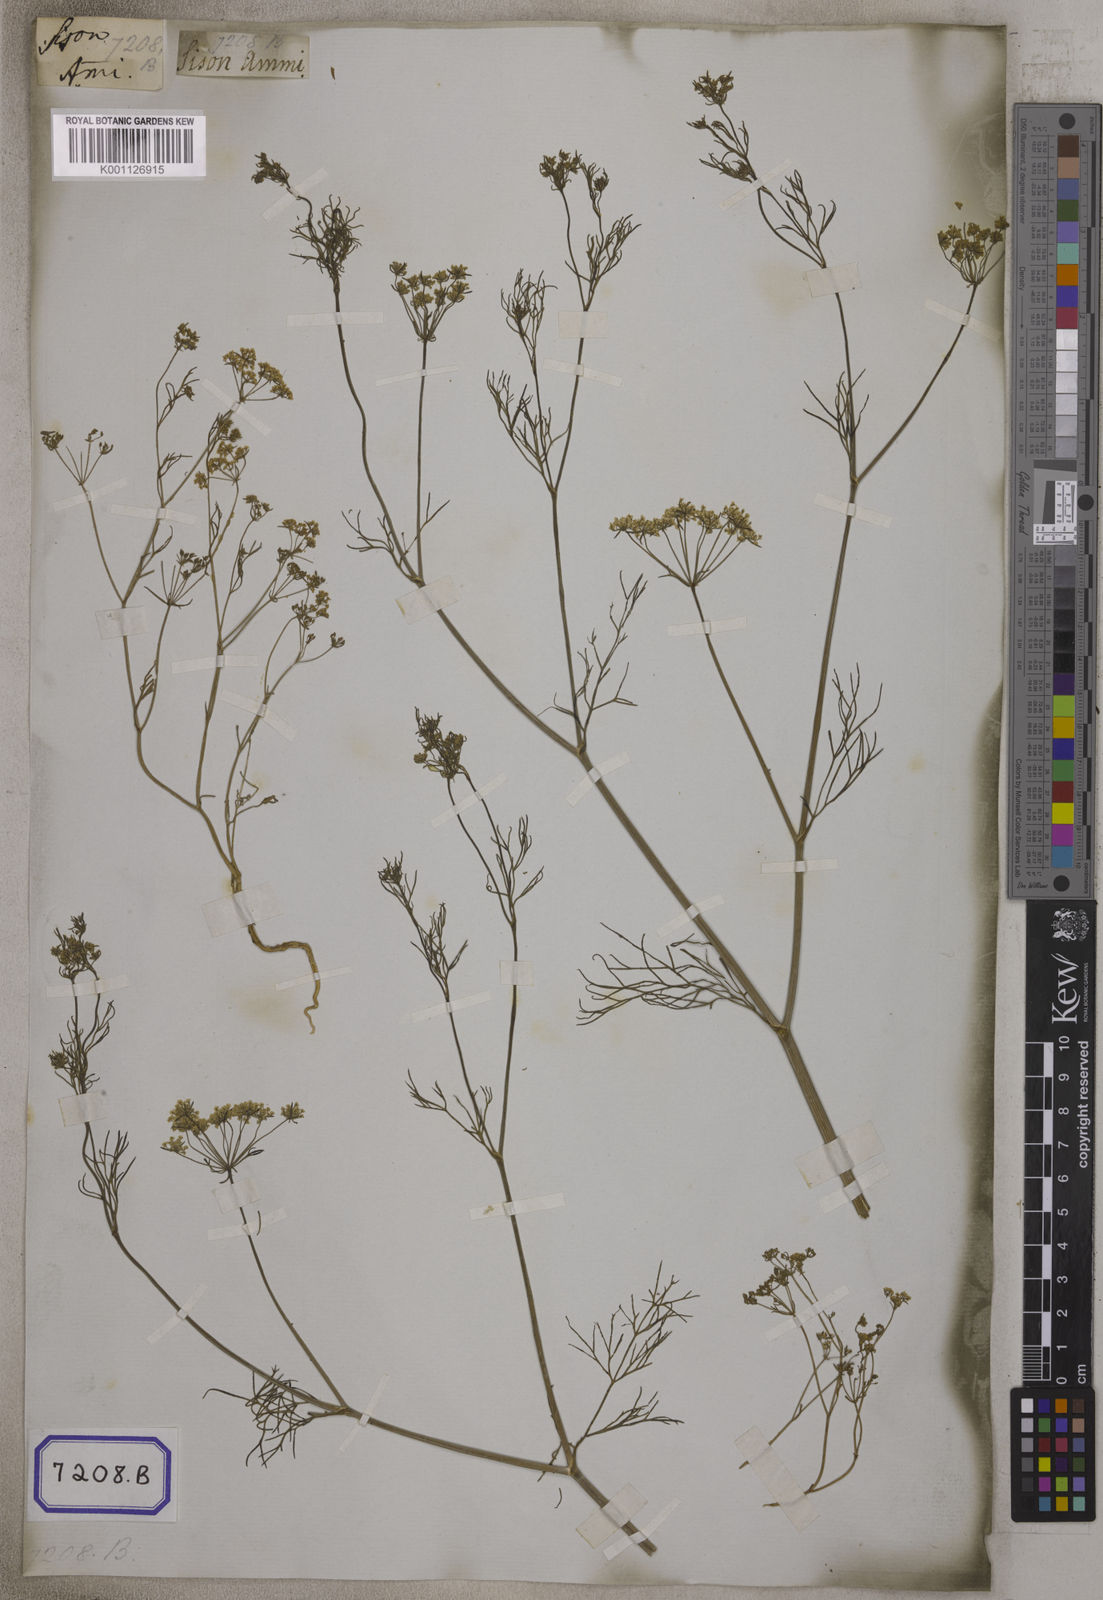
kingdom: Plantae
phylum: Tracheophyta
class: Magnoliopsida
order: Apiales
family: Apiaceae
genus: Ammi
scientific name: Ammi
